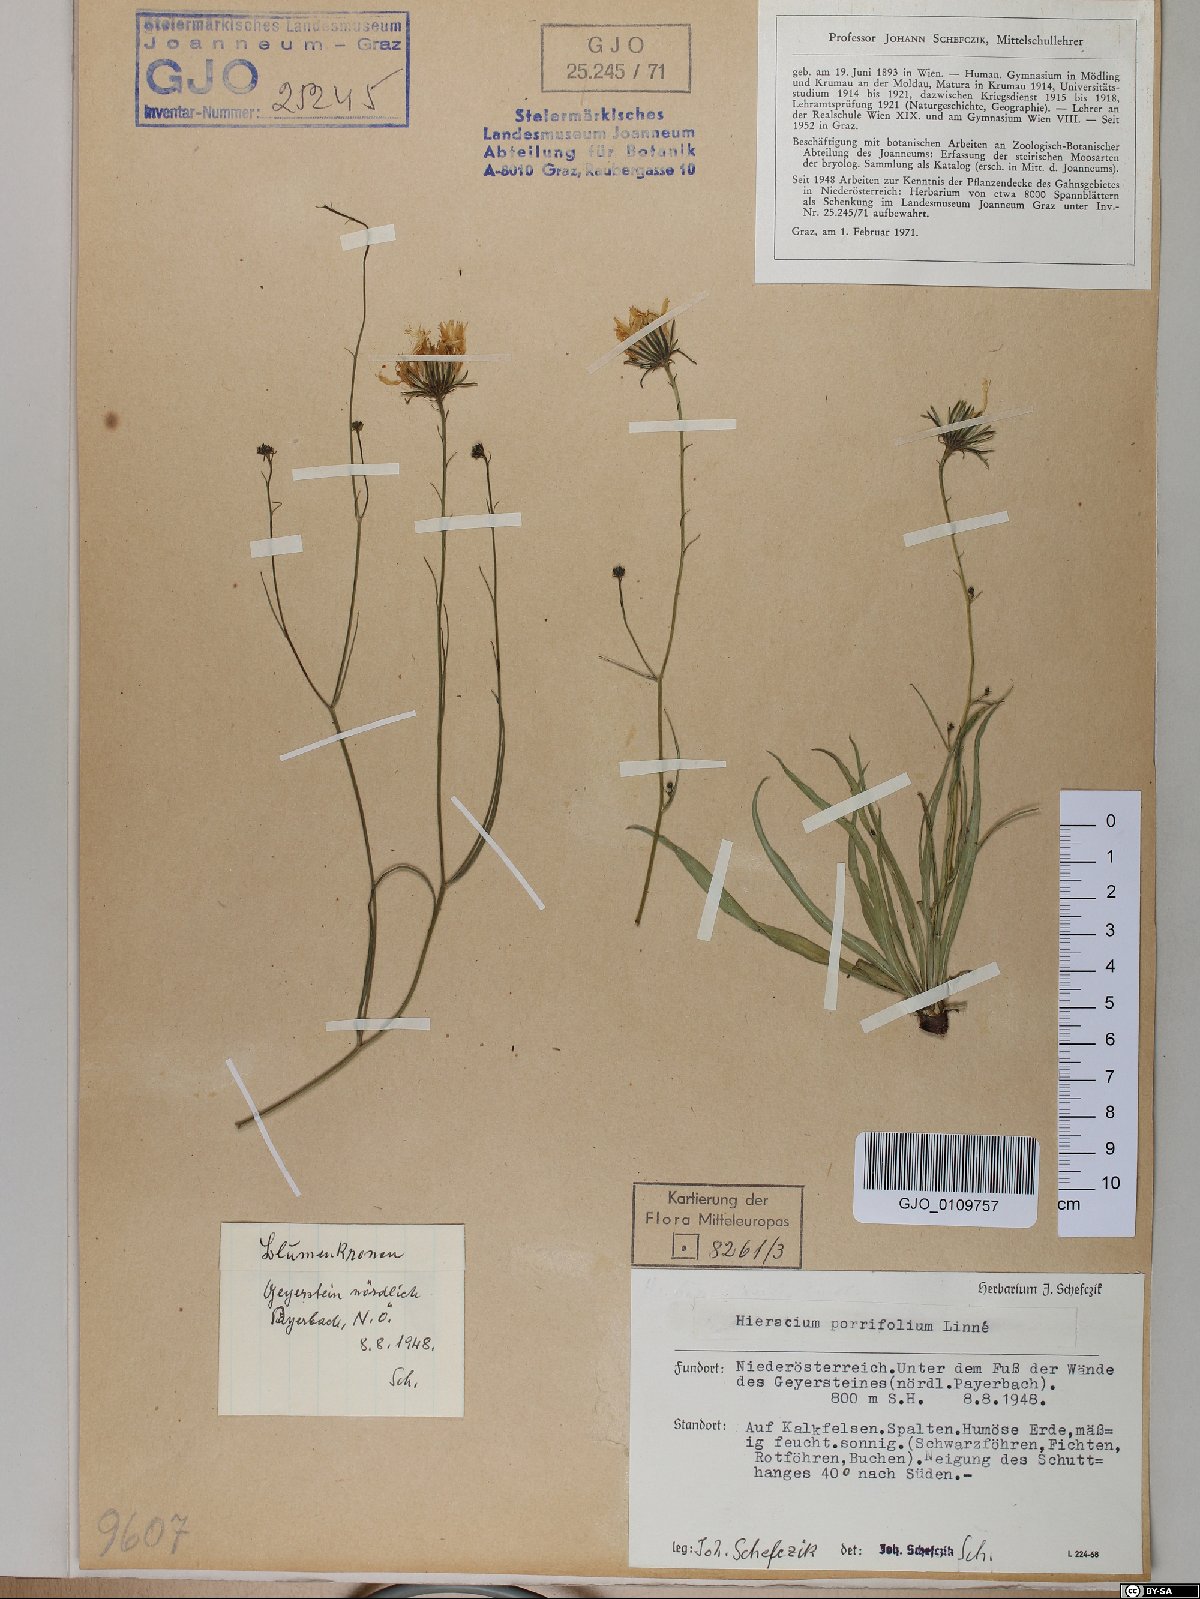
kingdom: Plantae
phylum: Tracheophyta
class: Magnoliopsida
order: Asterales
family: Asteraceae
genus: Hieracium
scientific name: Hieracium porrifolium
